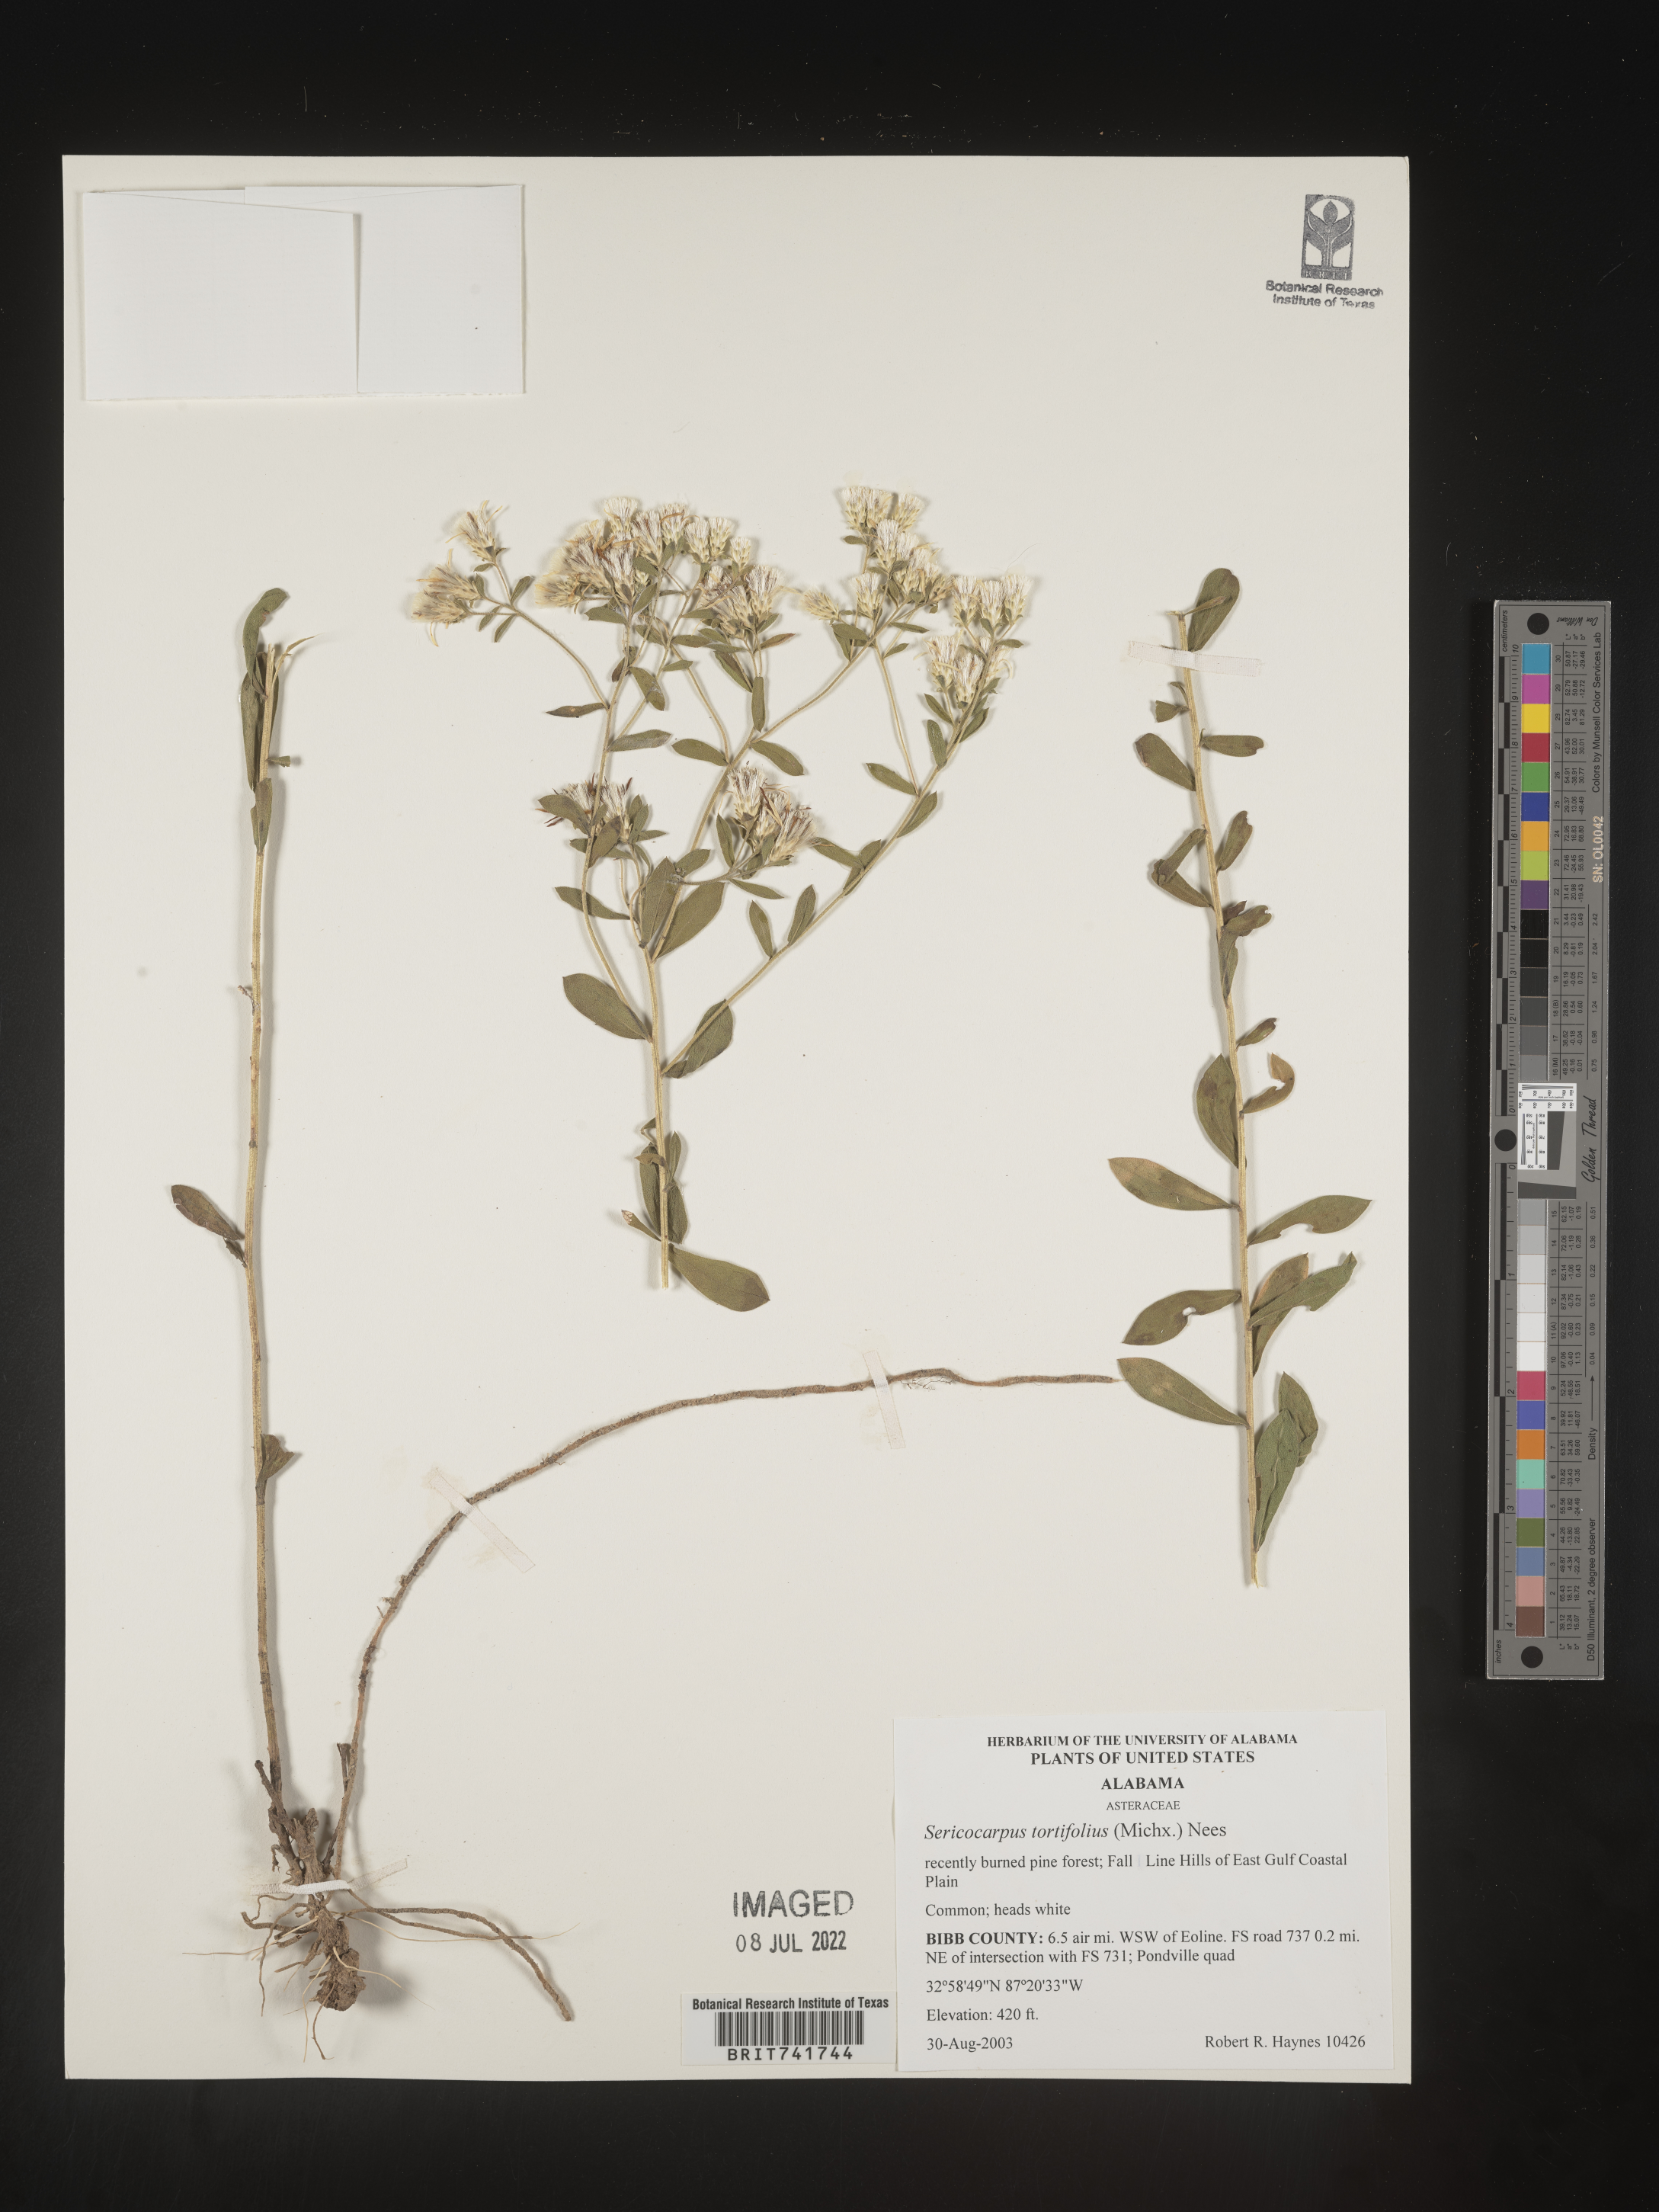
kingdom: Plantae
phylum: Tracheophyta
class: Magnoliopsida
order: Asterales
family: Asteraceae
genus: Sericocarpus
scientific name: Sericocarpus tortifolius
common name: Dixie aster
